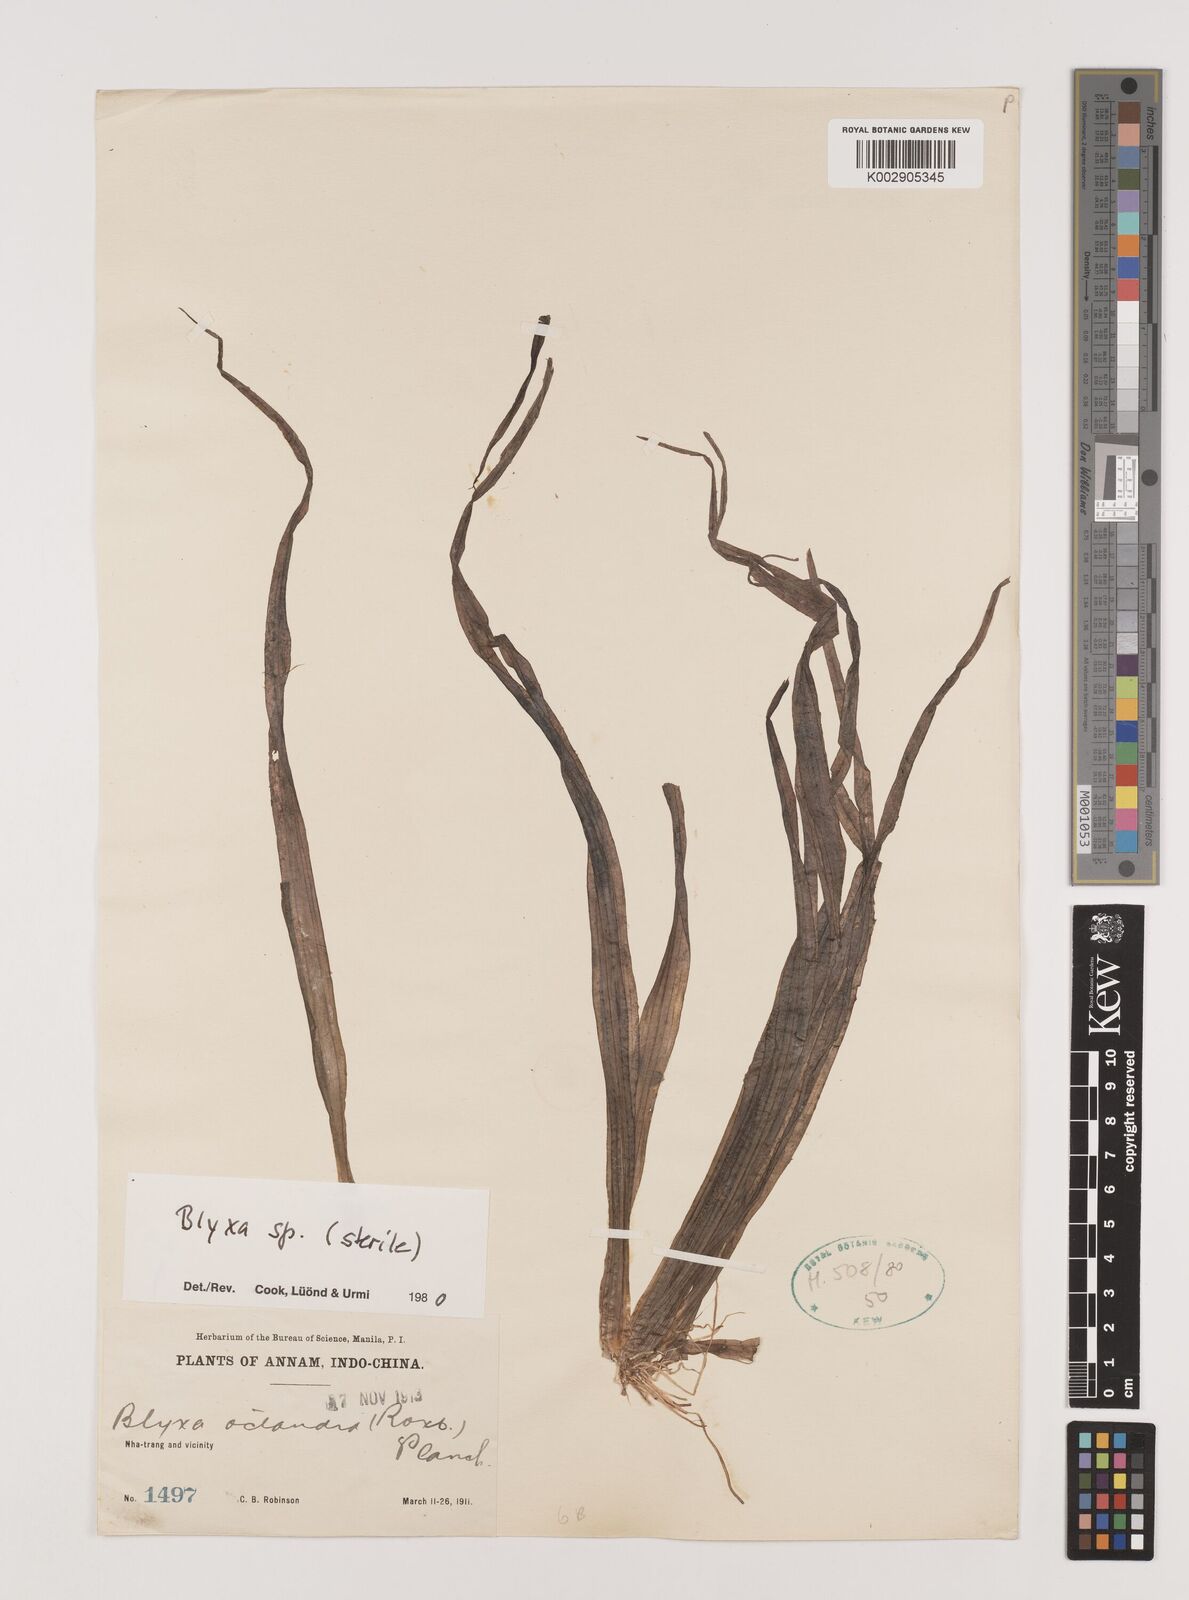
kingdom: Plantae
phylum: Tracheophyta
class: Liliopsida
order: Alismatales
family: Hydrocharitaceae
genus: Blyxa
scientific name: Blyxa
